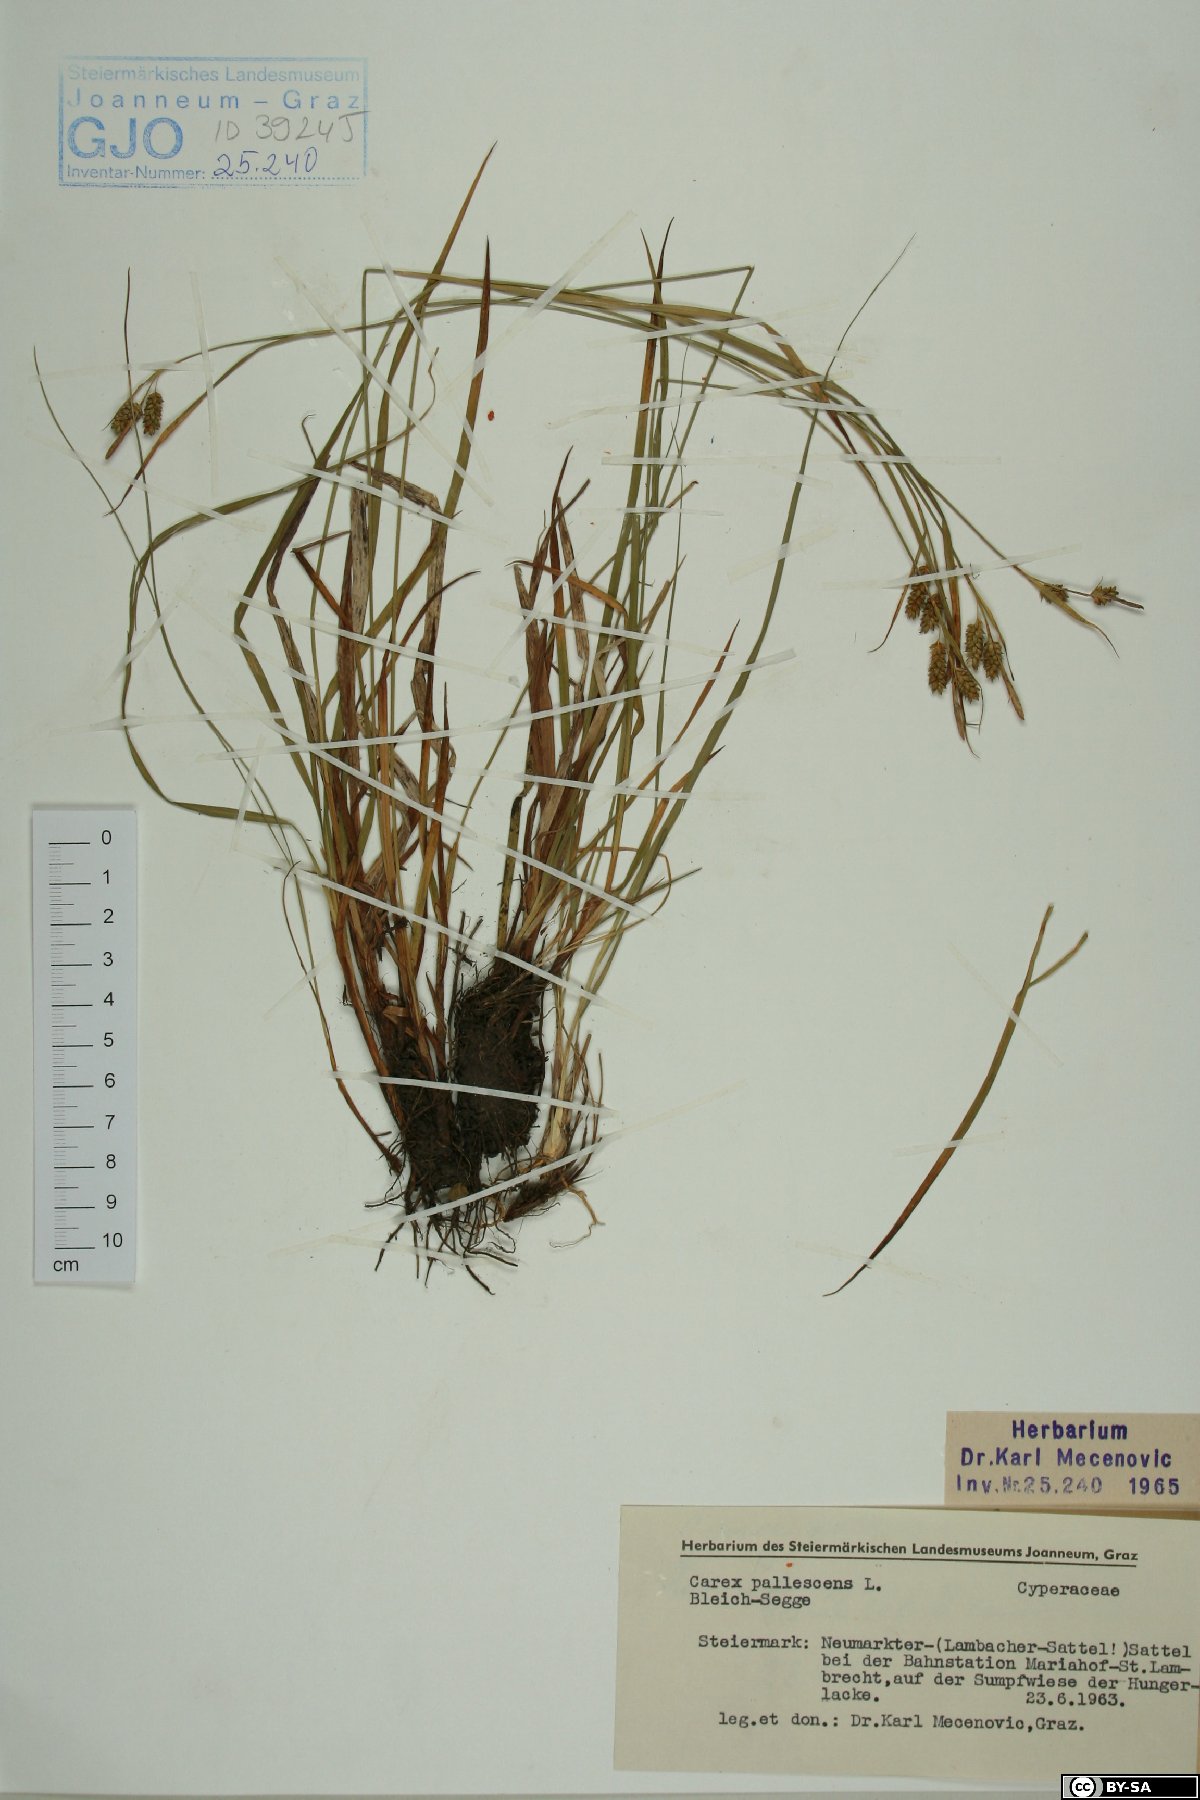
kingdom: Plantae
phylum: Tracheophyta
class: Liliopsida
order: Poales
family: Cyperaceae
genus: Carex
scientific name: Carex pallescens
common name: Pale sedge
